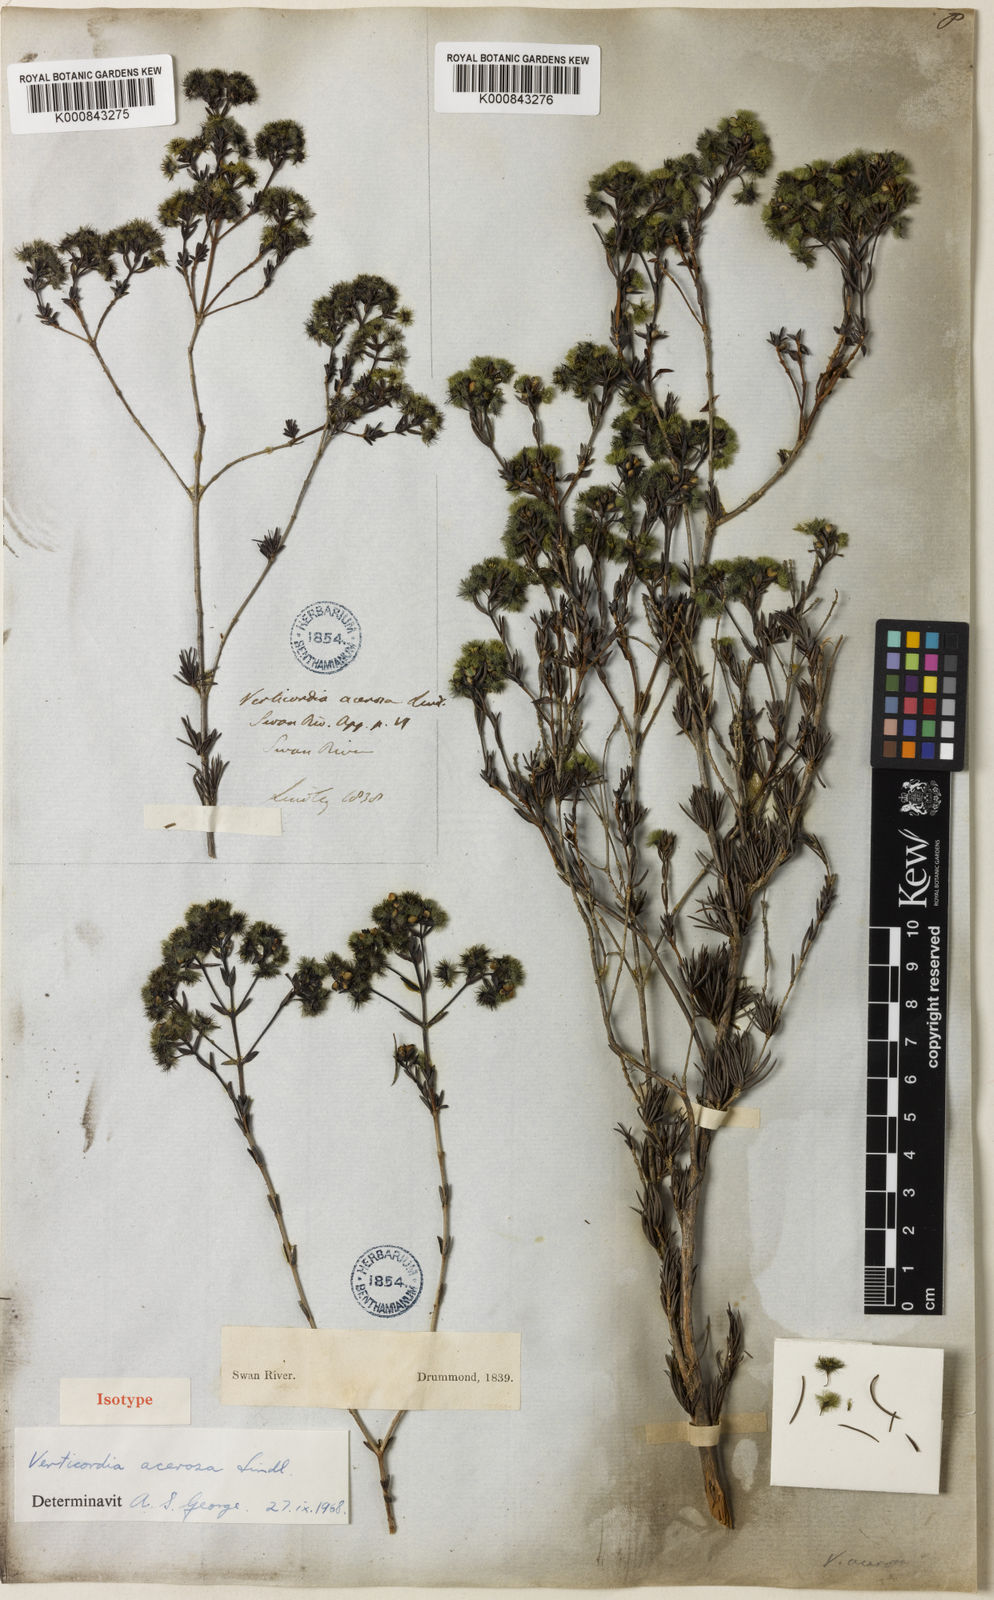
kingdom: Plantae
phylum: Tracheophyta
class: Magnoliopsida
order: Myrtales
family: Myrtaceae
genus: Verticordia
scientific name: Verticordia acerosa
